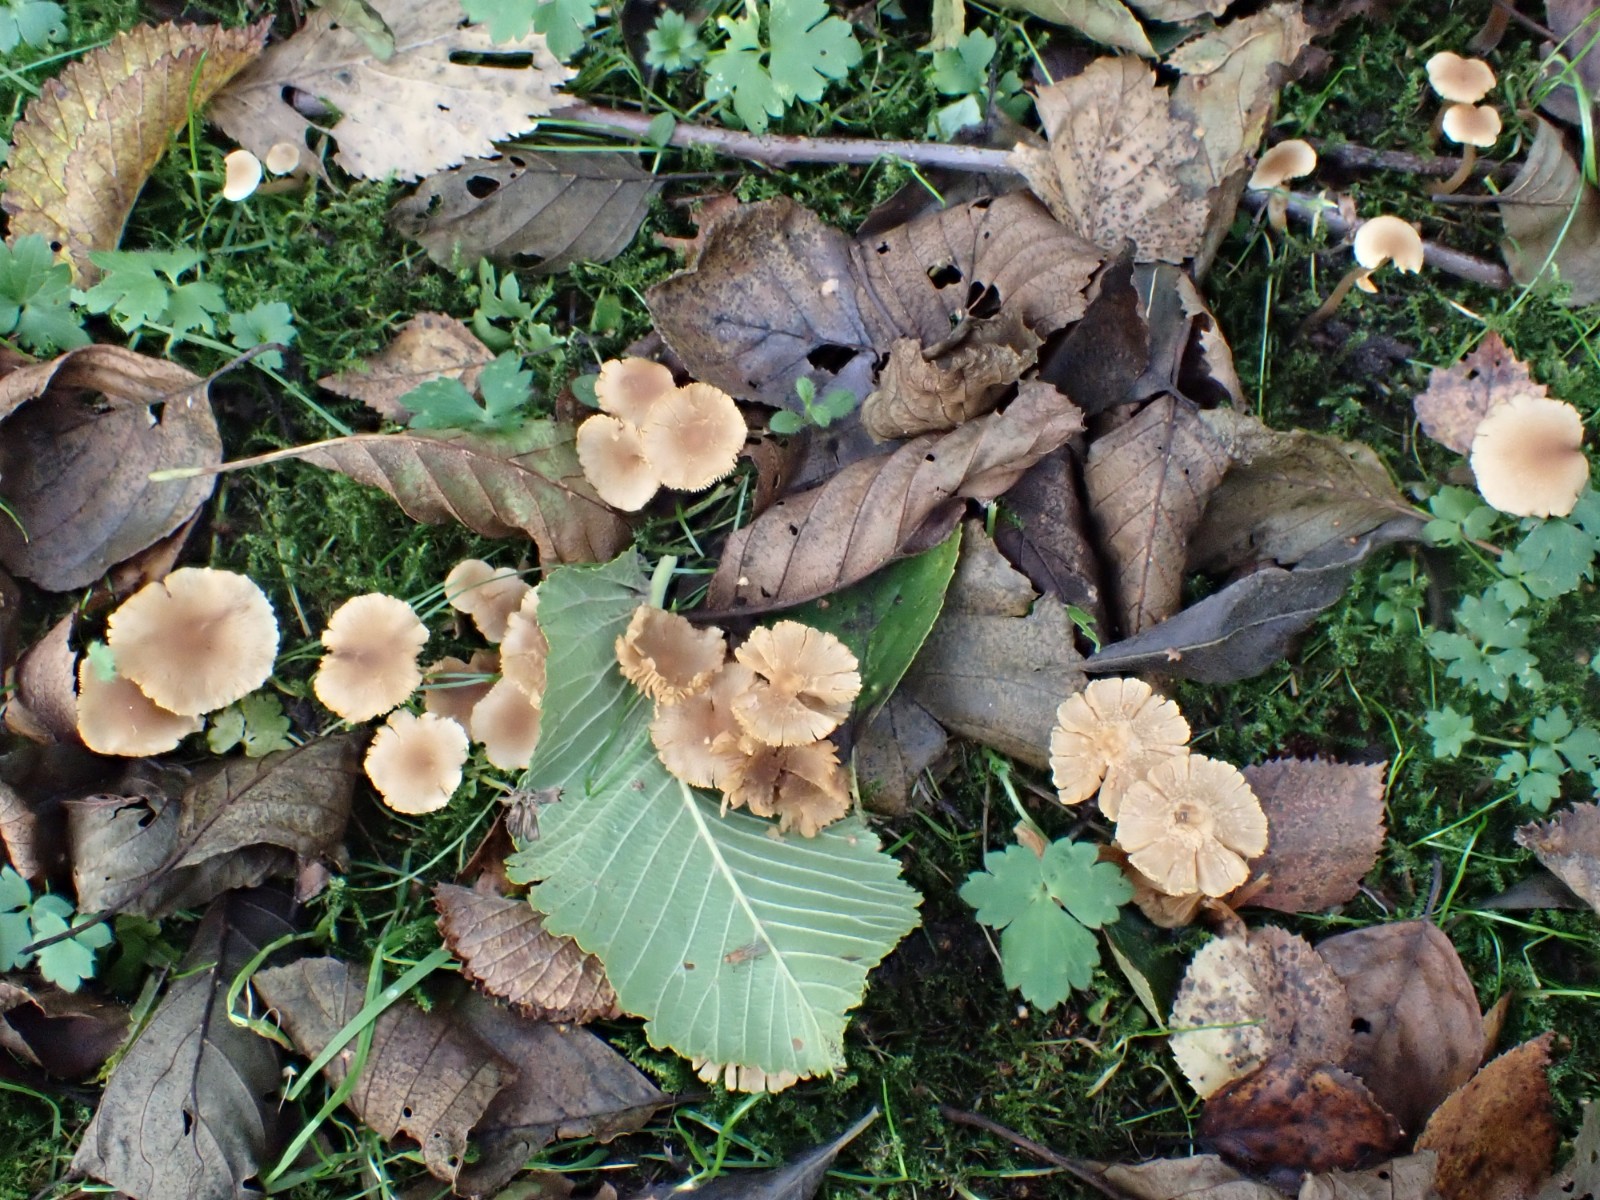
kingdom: Fungi
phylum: Basidiomycota
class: Agaricomycetes
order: Agaricales
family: Hymenogastraceae
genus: Naucoria
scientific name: Naucoria escharioides
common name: lys elle-knaphat
